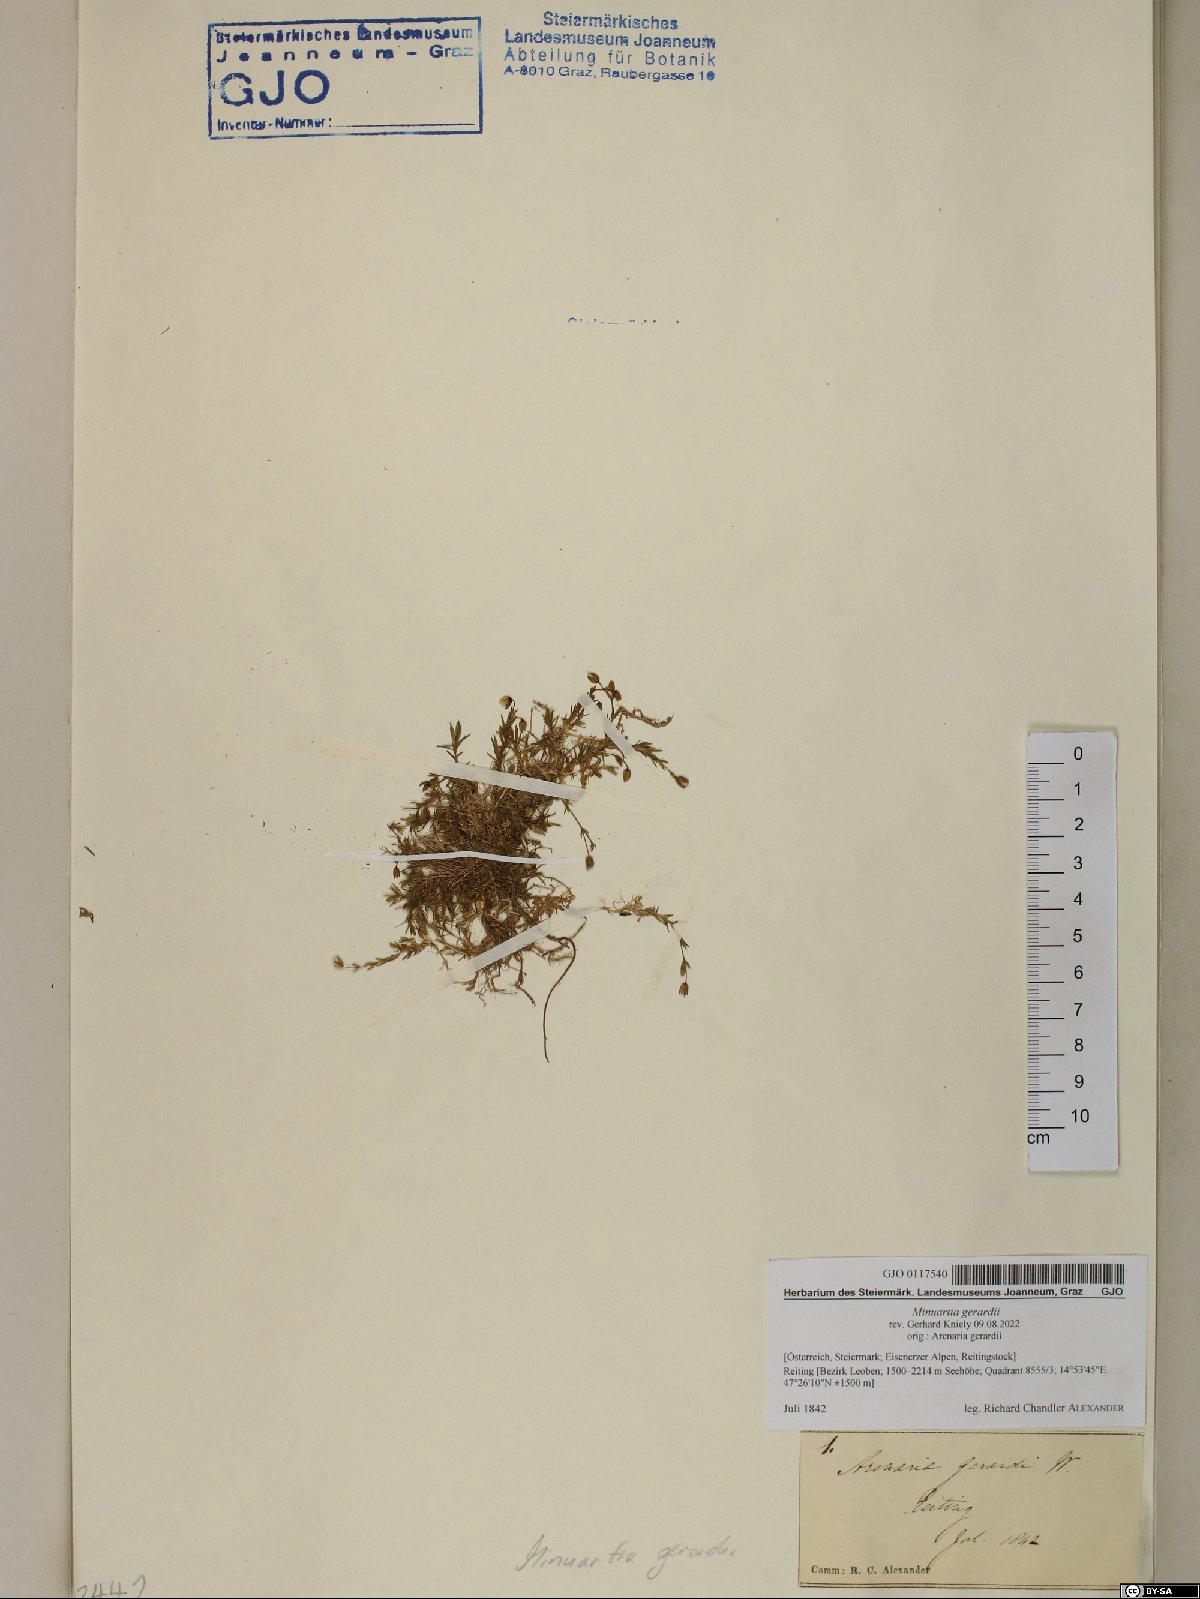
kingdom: Plantae
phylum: Tracheophyta
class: Magnoliopsida
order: Caryophyllales
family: Caryophyllaceae
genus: Sabulina
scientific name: Sabulina verna
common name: Spring sandwort
